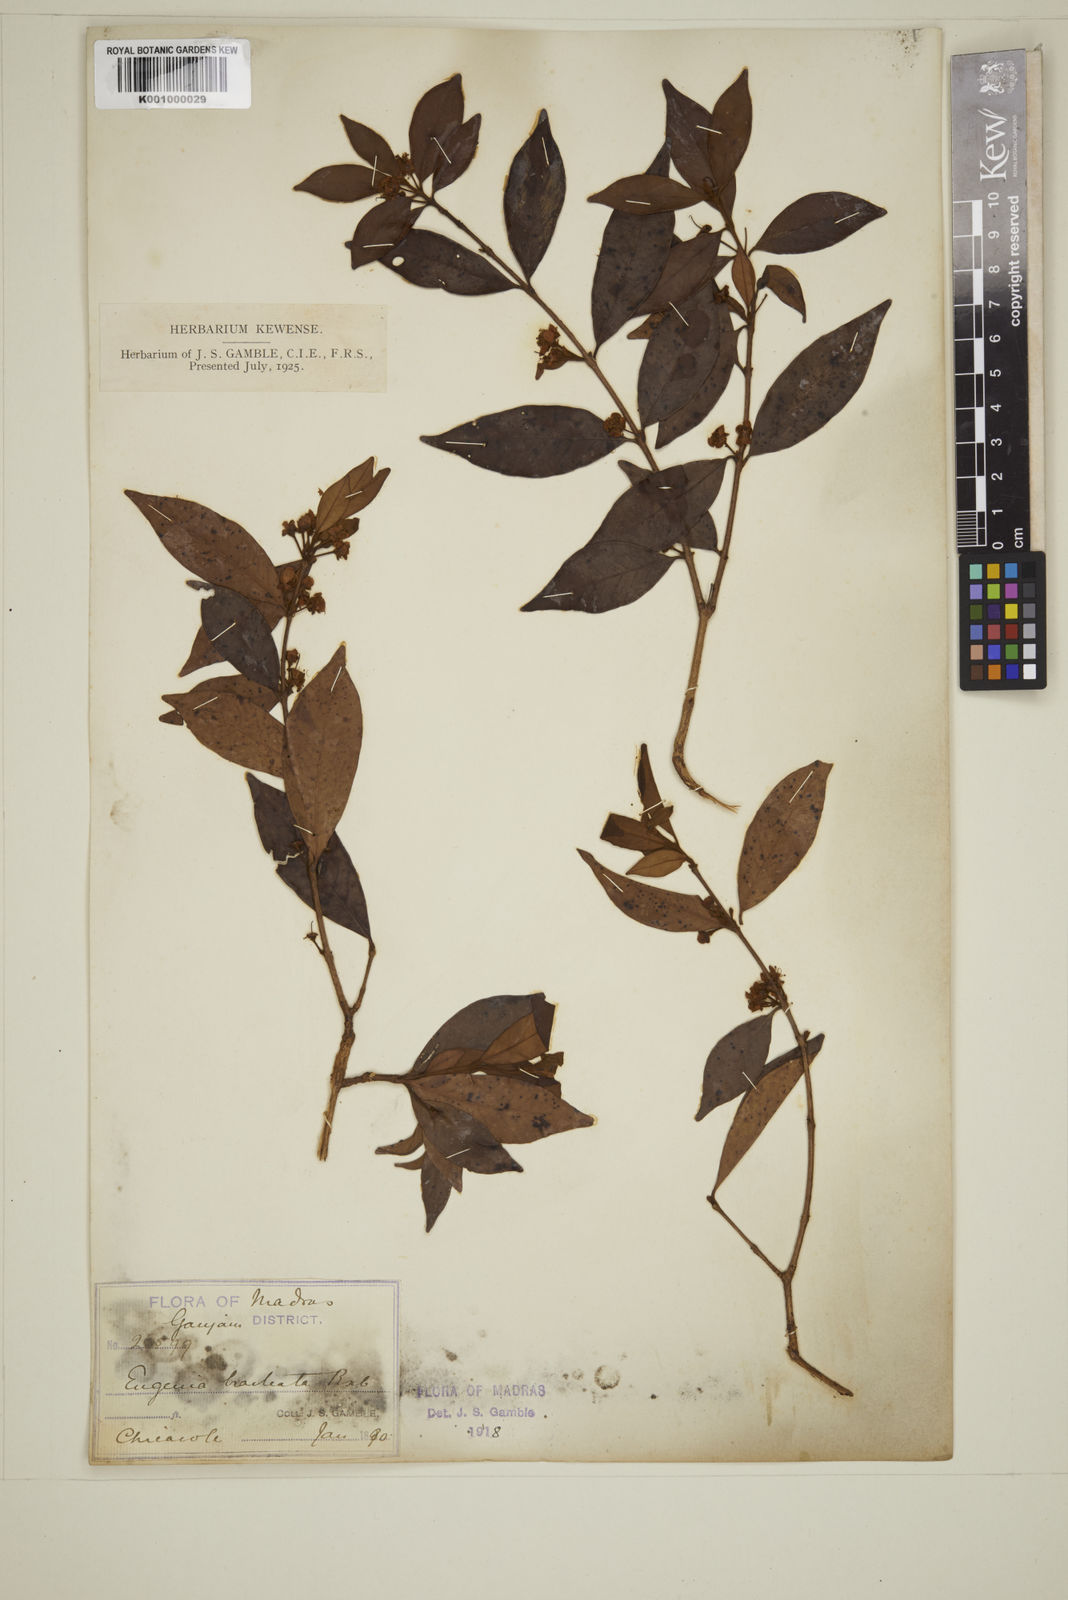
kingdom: Plantae
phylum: Tracheophyta
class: Magnoliopsida
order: Myrtales
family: Myrtaceae
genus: Myrcia
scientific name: Myrcia bracteata
